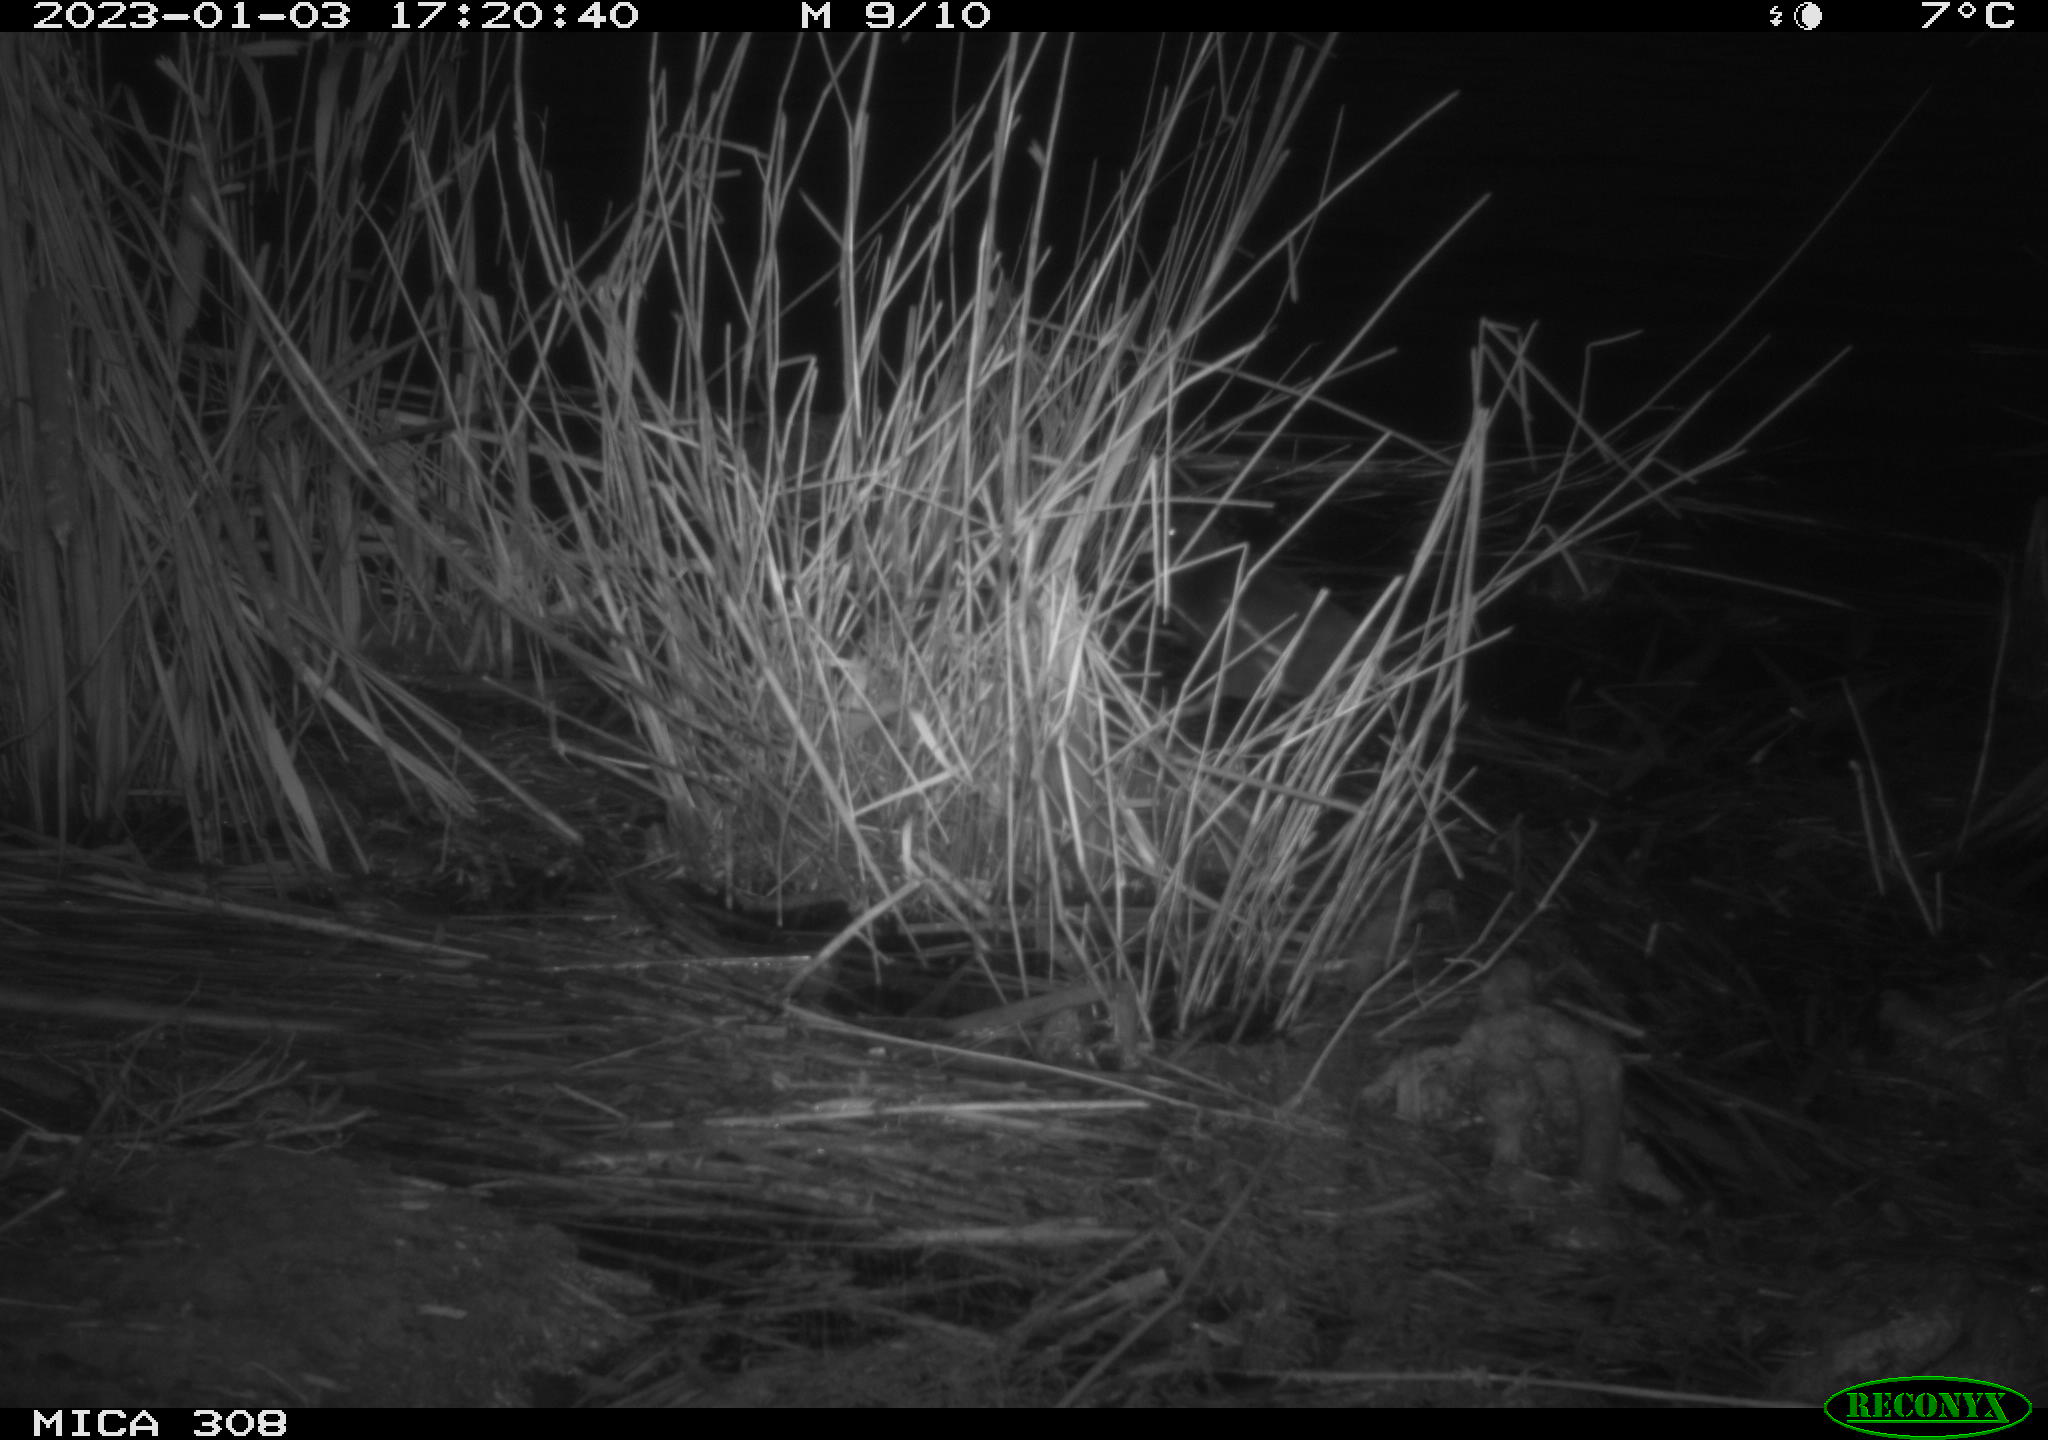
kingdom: Animalia
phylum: Chordata
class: Aves
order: Gruiformes
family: Rallidae
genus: Gallinula
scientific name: Gallinula chloropus
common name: Common moorhen
